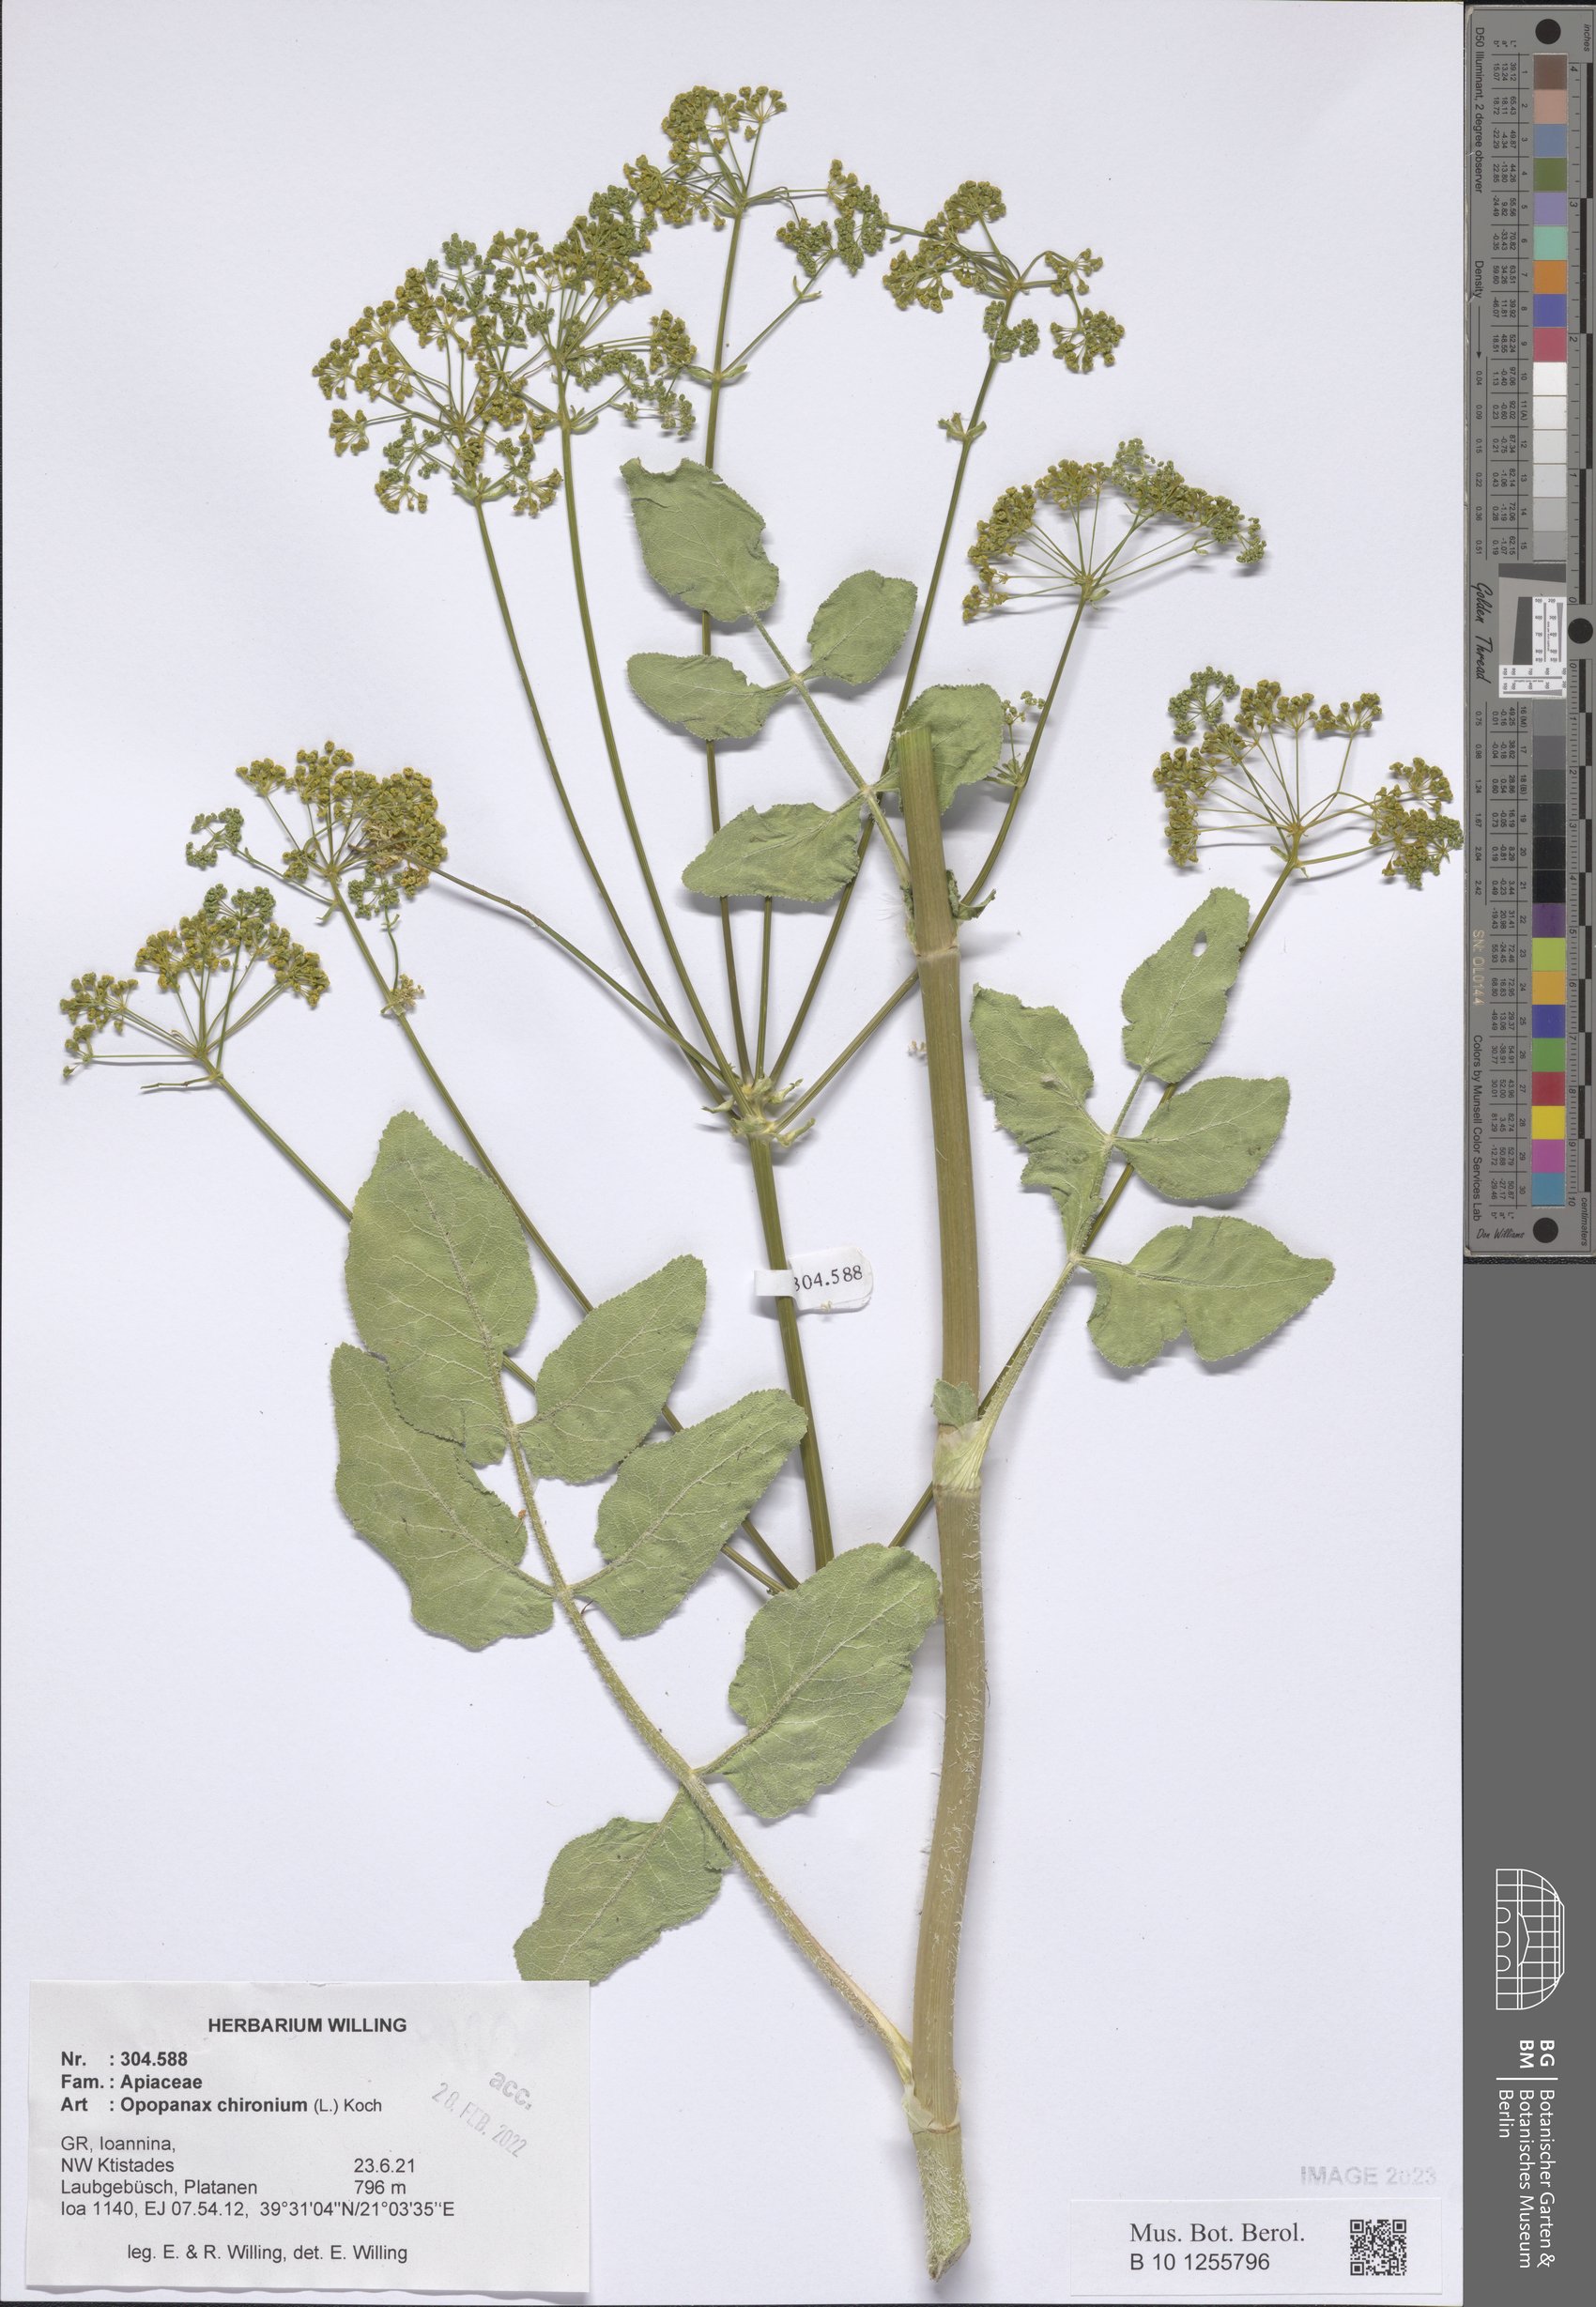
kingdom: Plantae
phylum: Tracheophyta
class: Magnoliopsida
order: Apiales
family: Apiaceae
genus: Opopanax
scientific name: Opopanax chironium
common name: Hercules-all-heal
